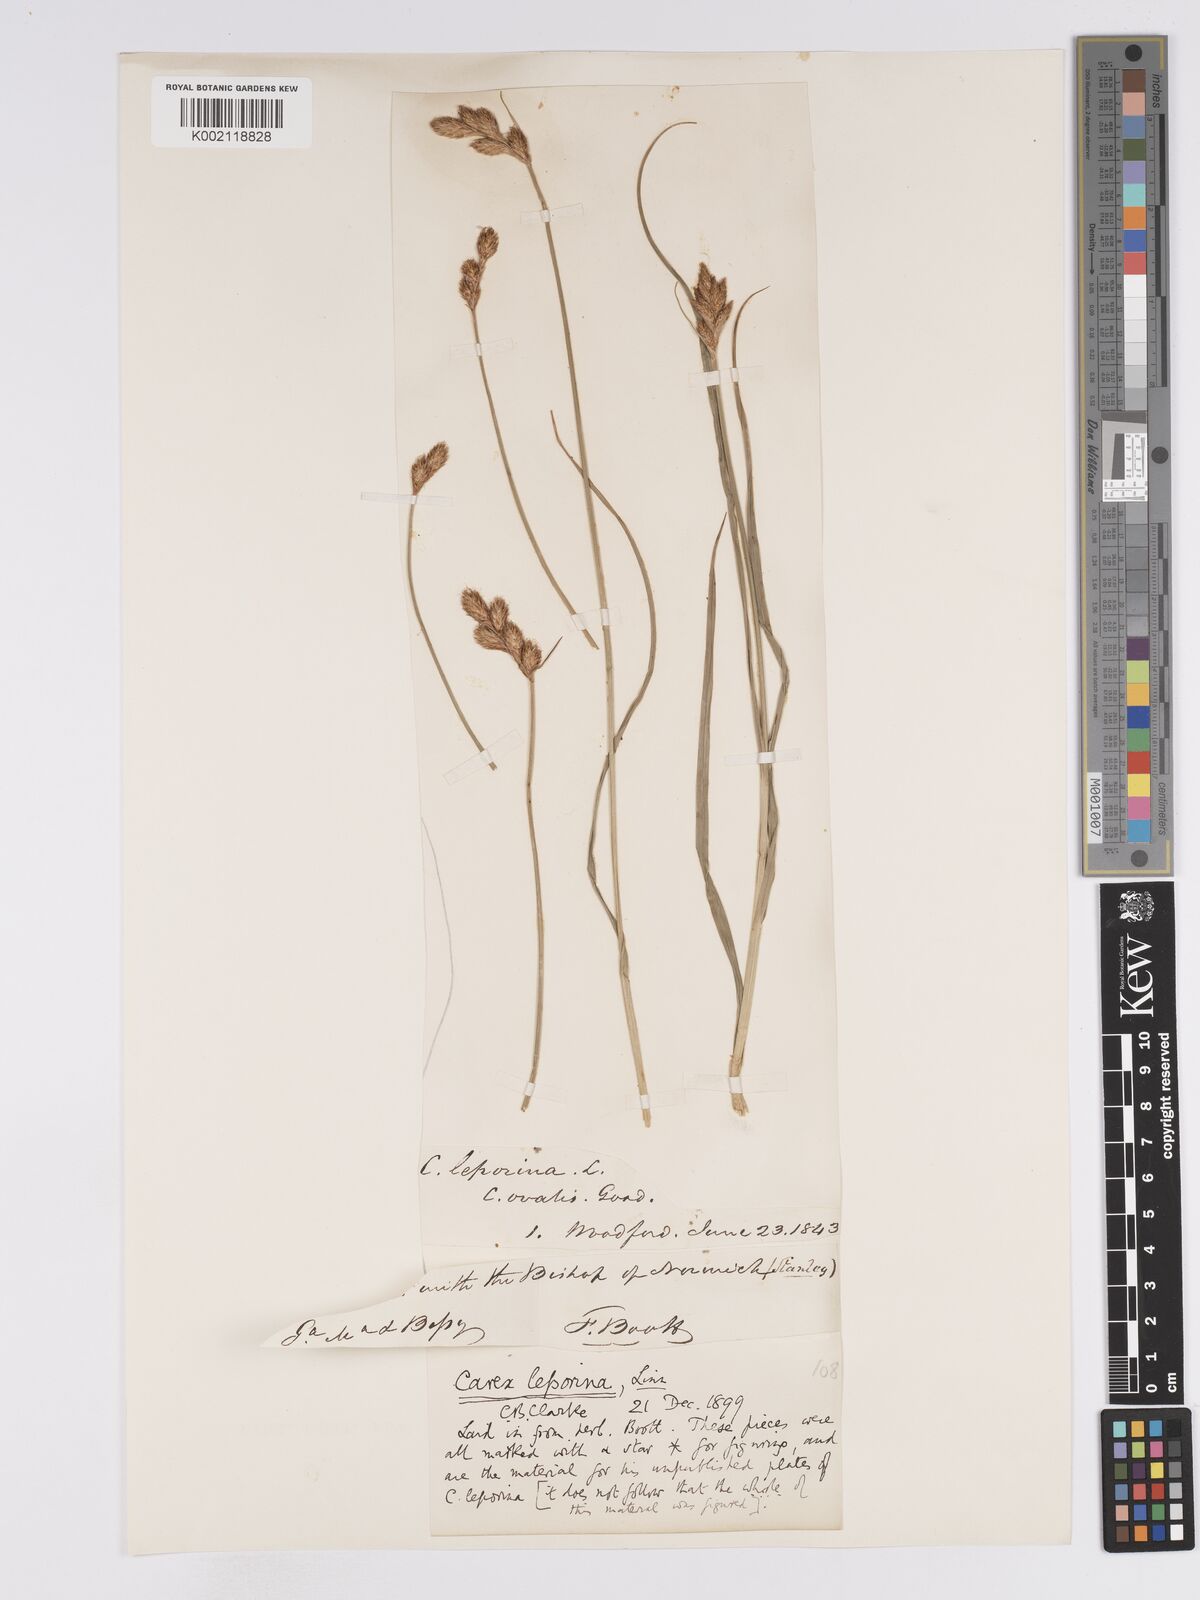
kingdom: Plantae
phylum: Tracheophyta
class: Liliopsida
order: Poales
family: Cyperaceae
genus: Carex
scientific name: Carex leporina
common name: Oval sedge
